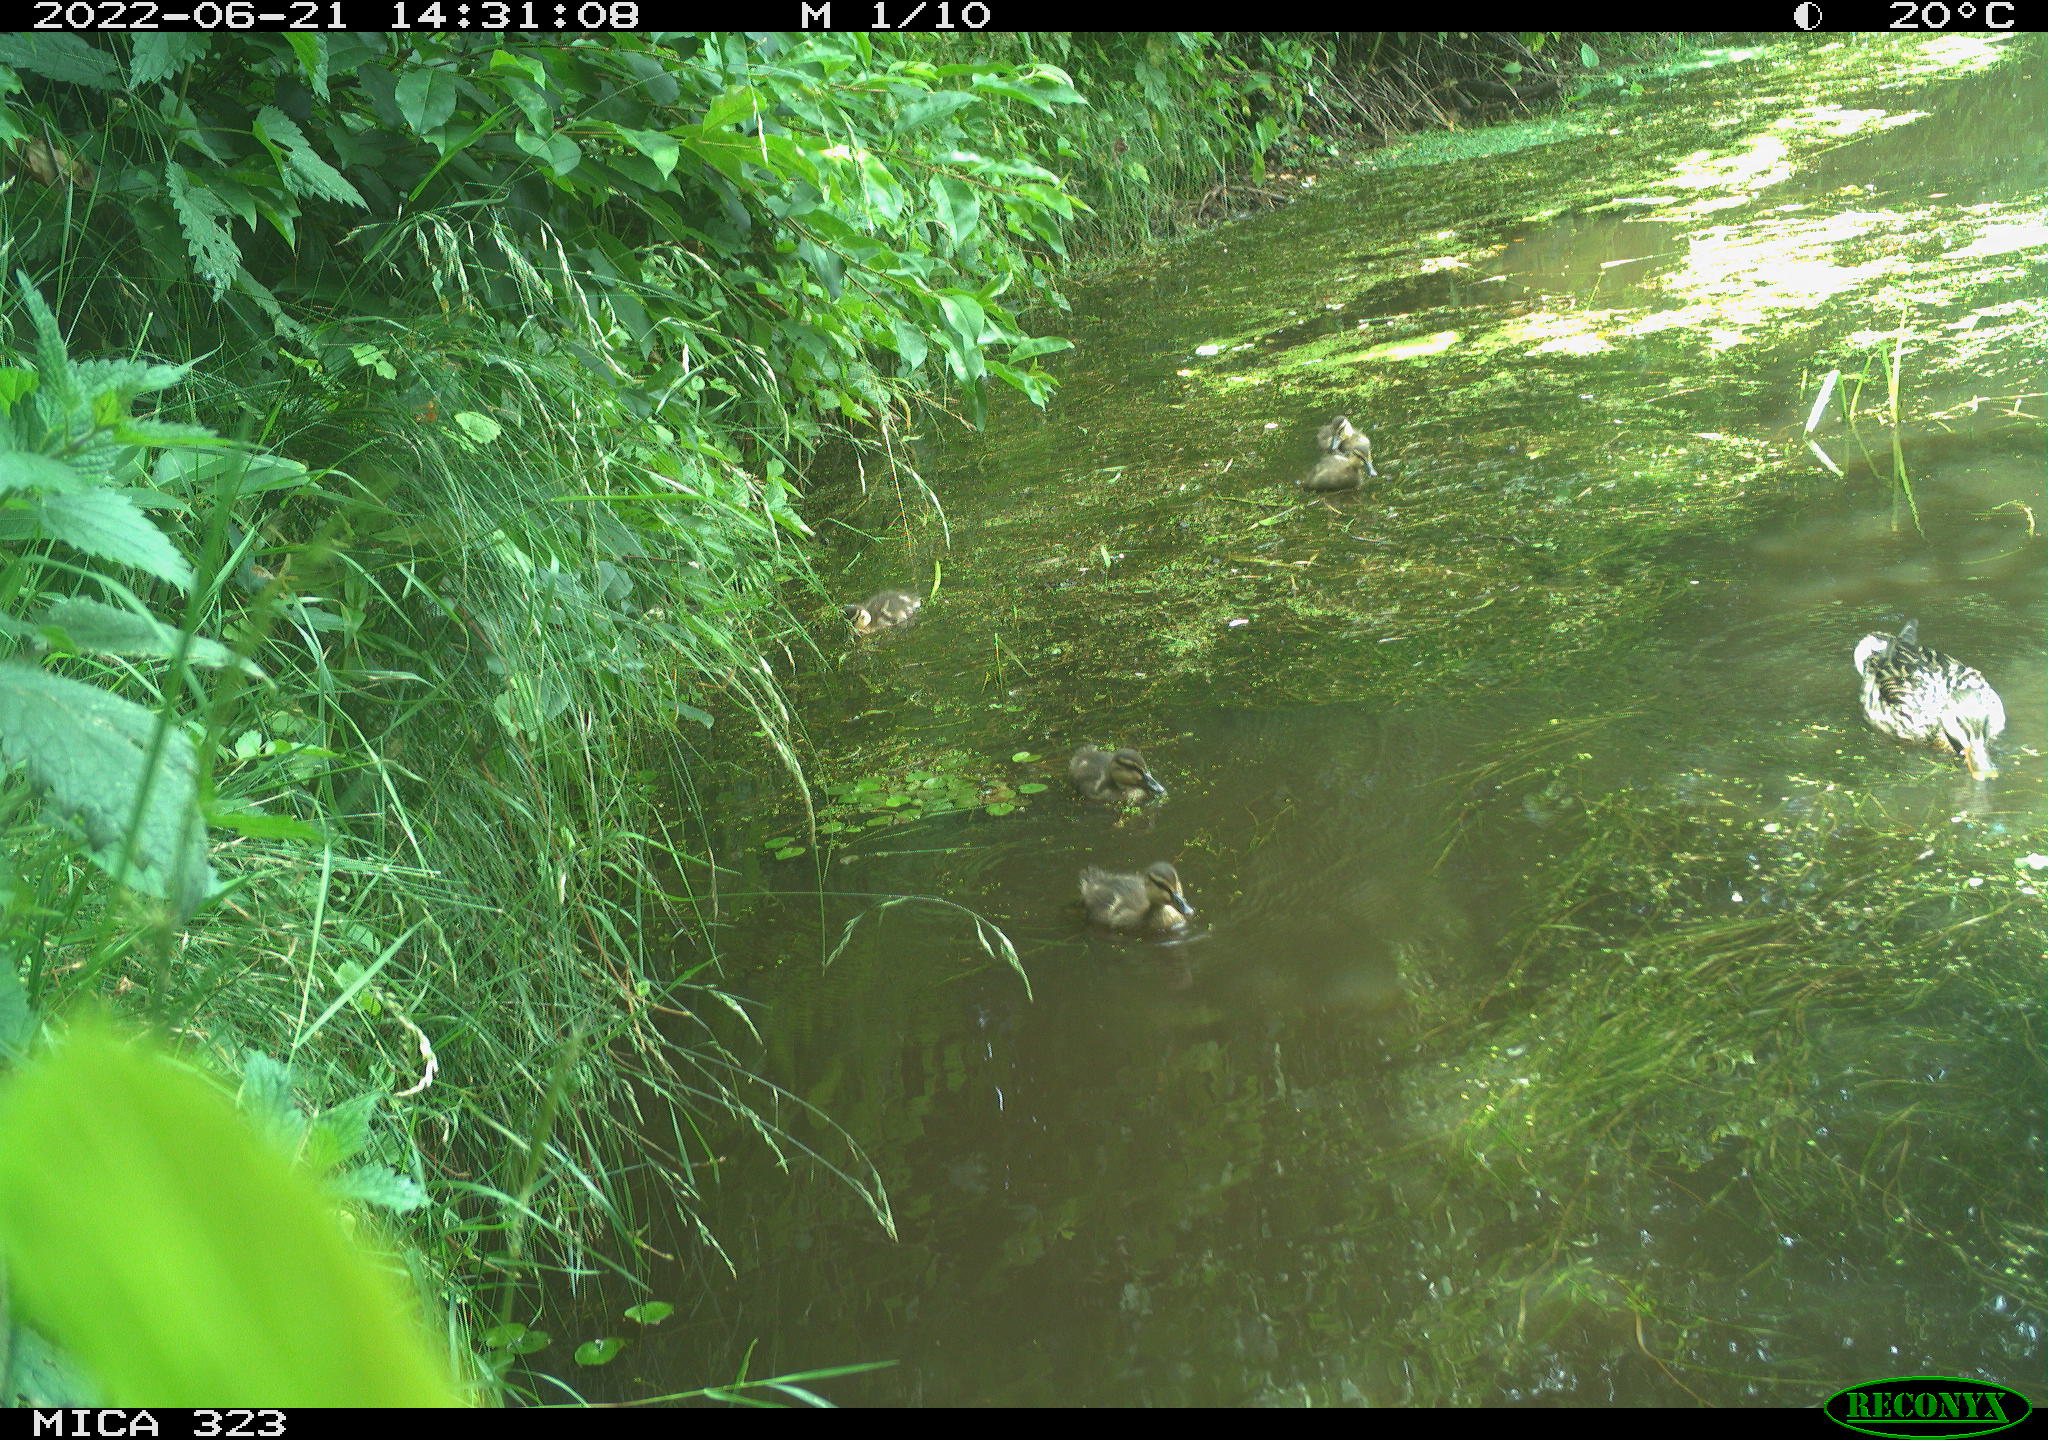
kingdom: Animalia
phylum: Chordata
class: Aves
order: Anseriformes
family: Anatidae
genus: Anas
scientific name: Anas platyrhynchos
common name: Mallard
